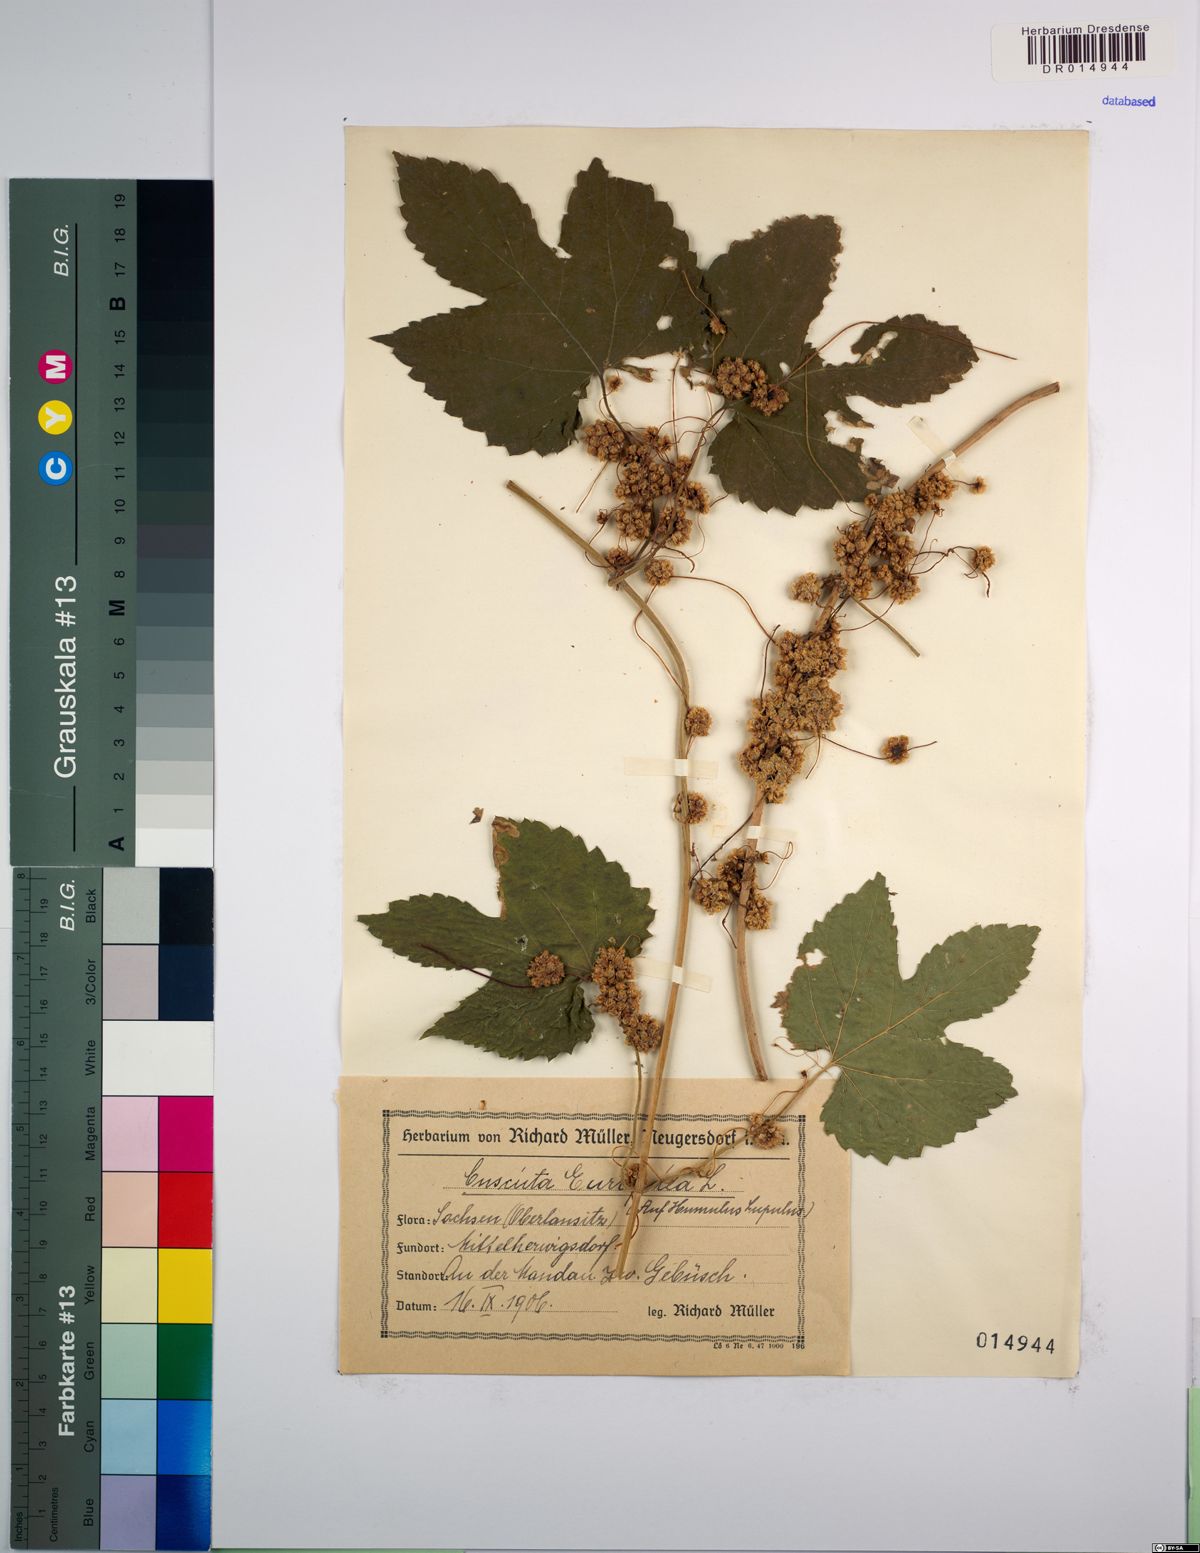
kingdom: Plantae
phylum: Tracheophyta
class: Magnoliopsida
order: Solanales
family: Convolvulaceae
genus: Cuscuta
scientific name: Cuscuta europaea
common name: Greater dodder
